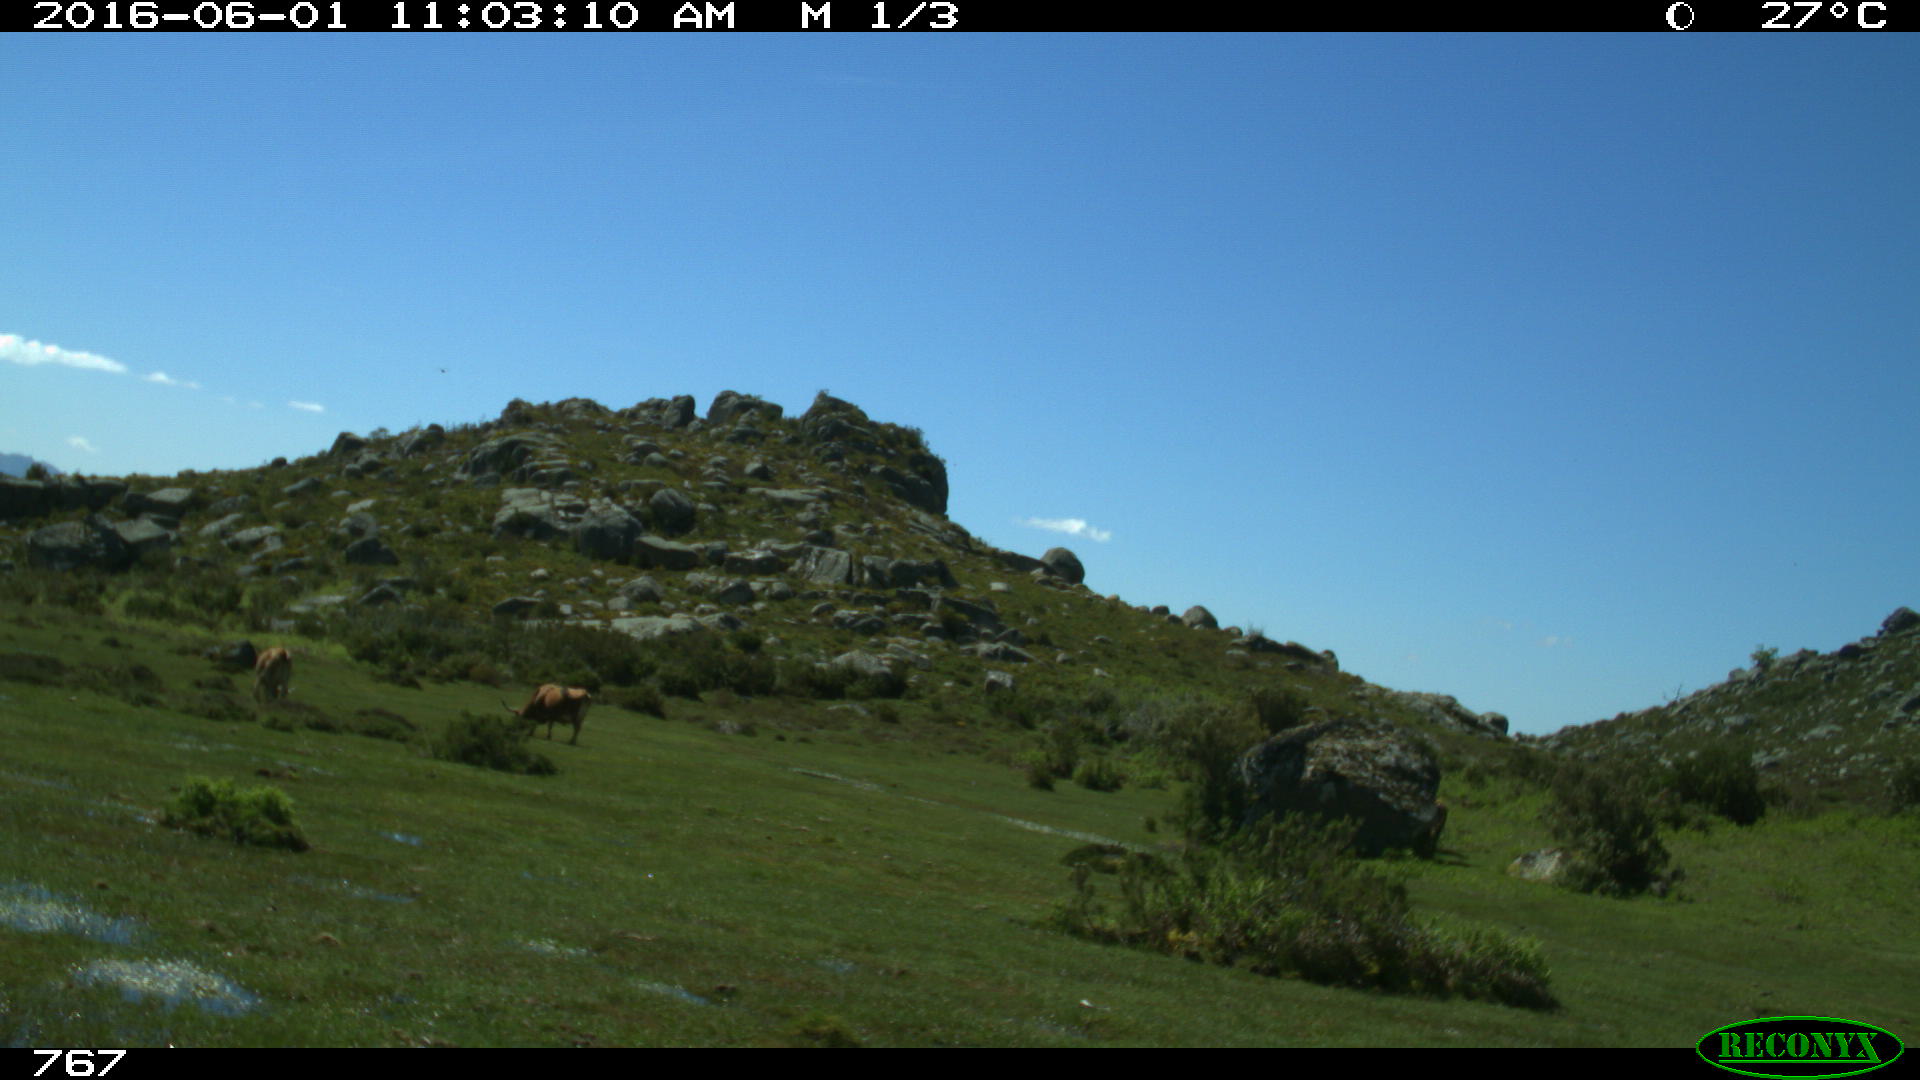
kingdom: Animalia
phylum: Chordata
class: Mammalia
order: Artiodactyla
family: Bovidae
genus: Bos
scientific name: Bos taurus
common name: Domesticated cattle
